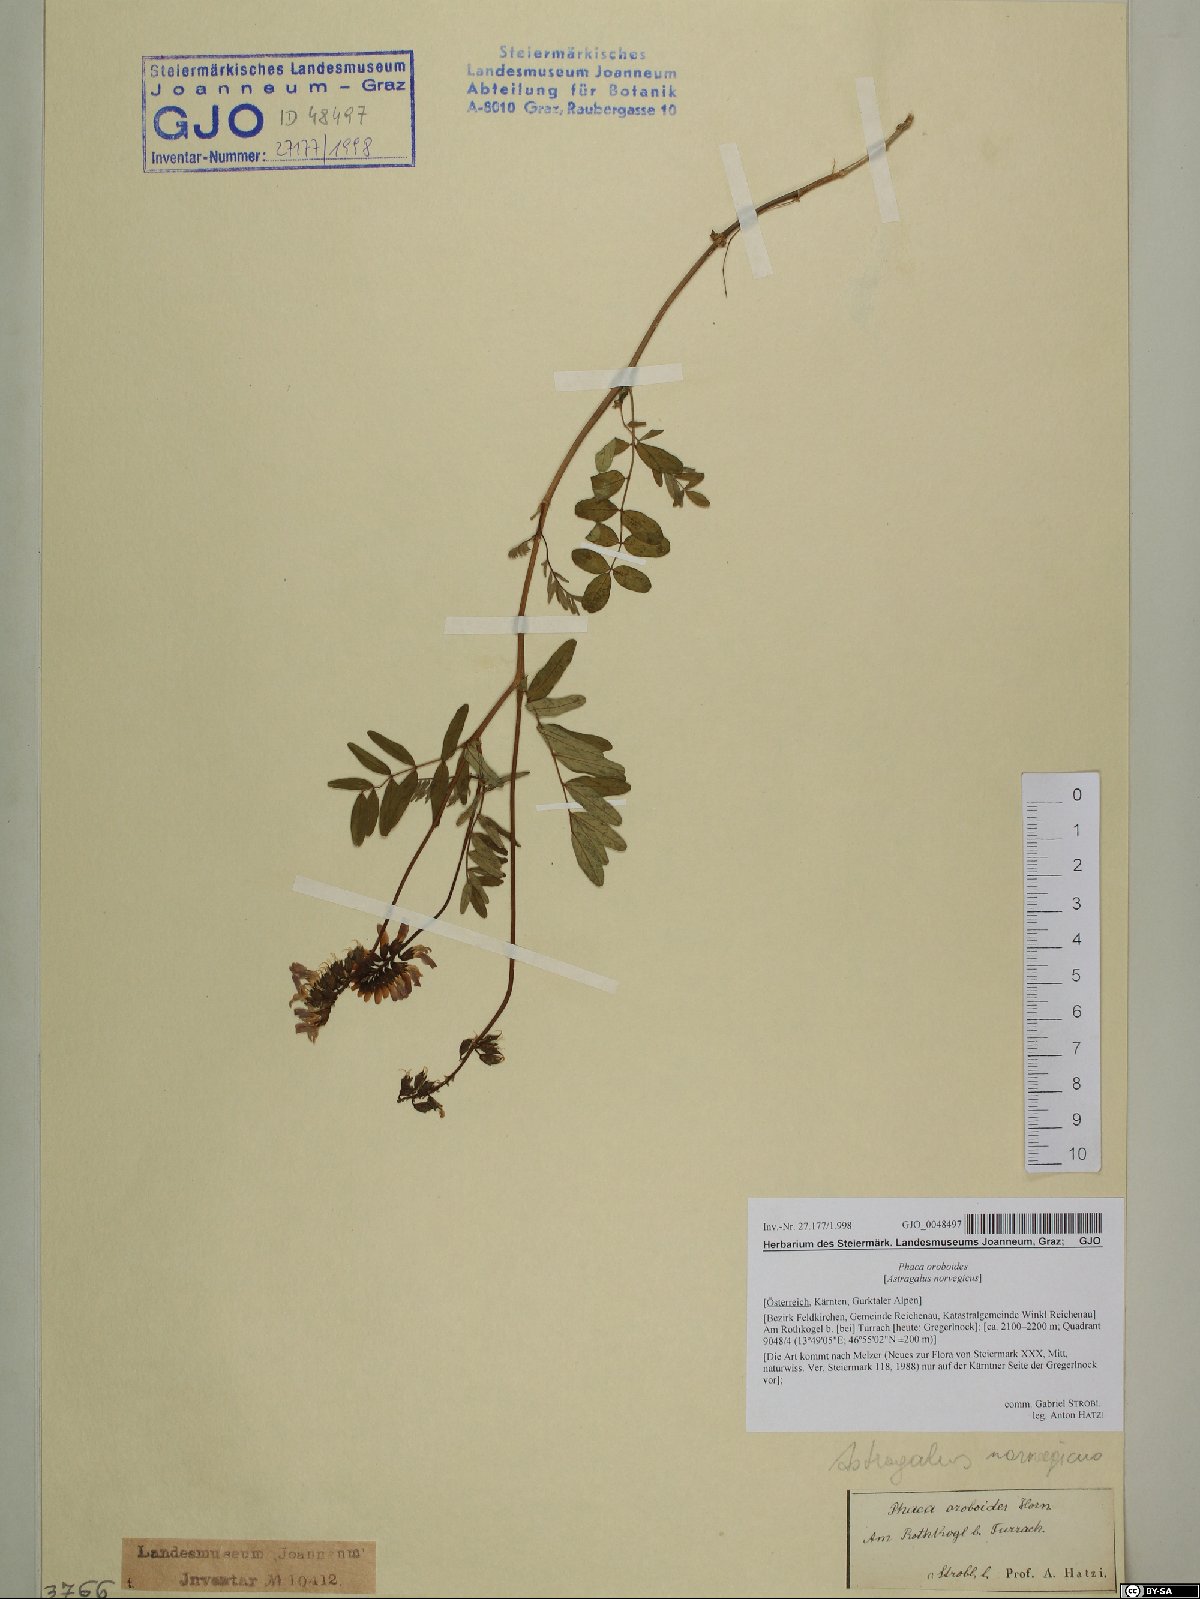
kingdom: Plantae
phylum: Tracheophyta
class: Magnoliopsida
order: Fabales
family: Fabaceae
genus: Astragalus
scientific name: Astragalus norvegicus
